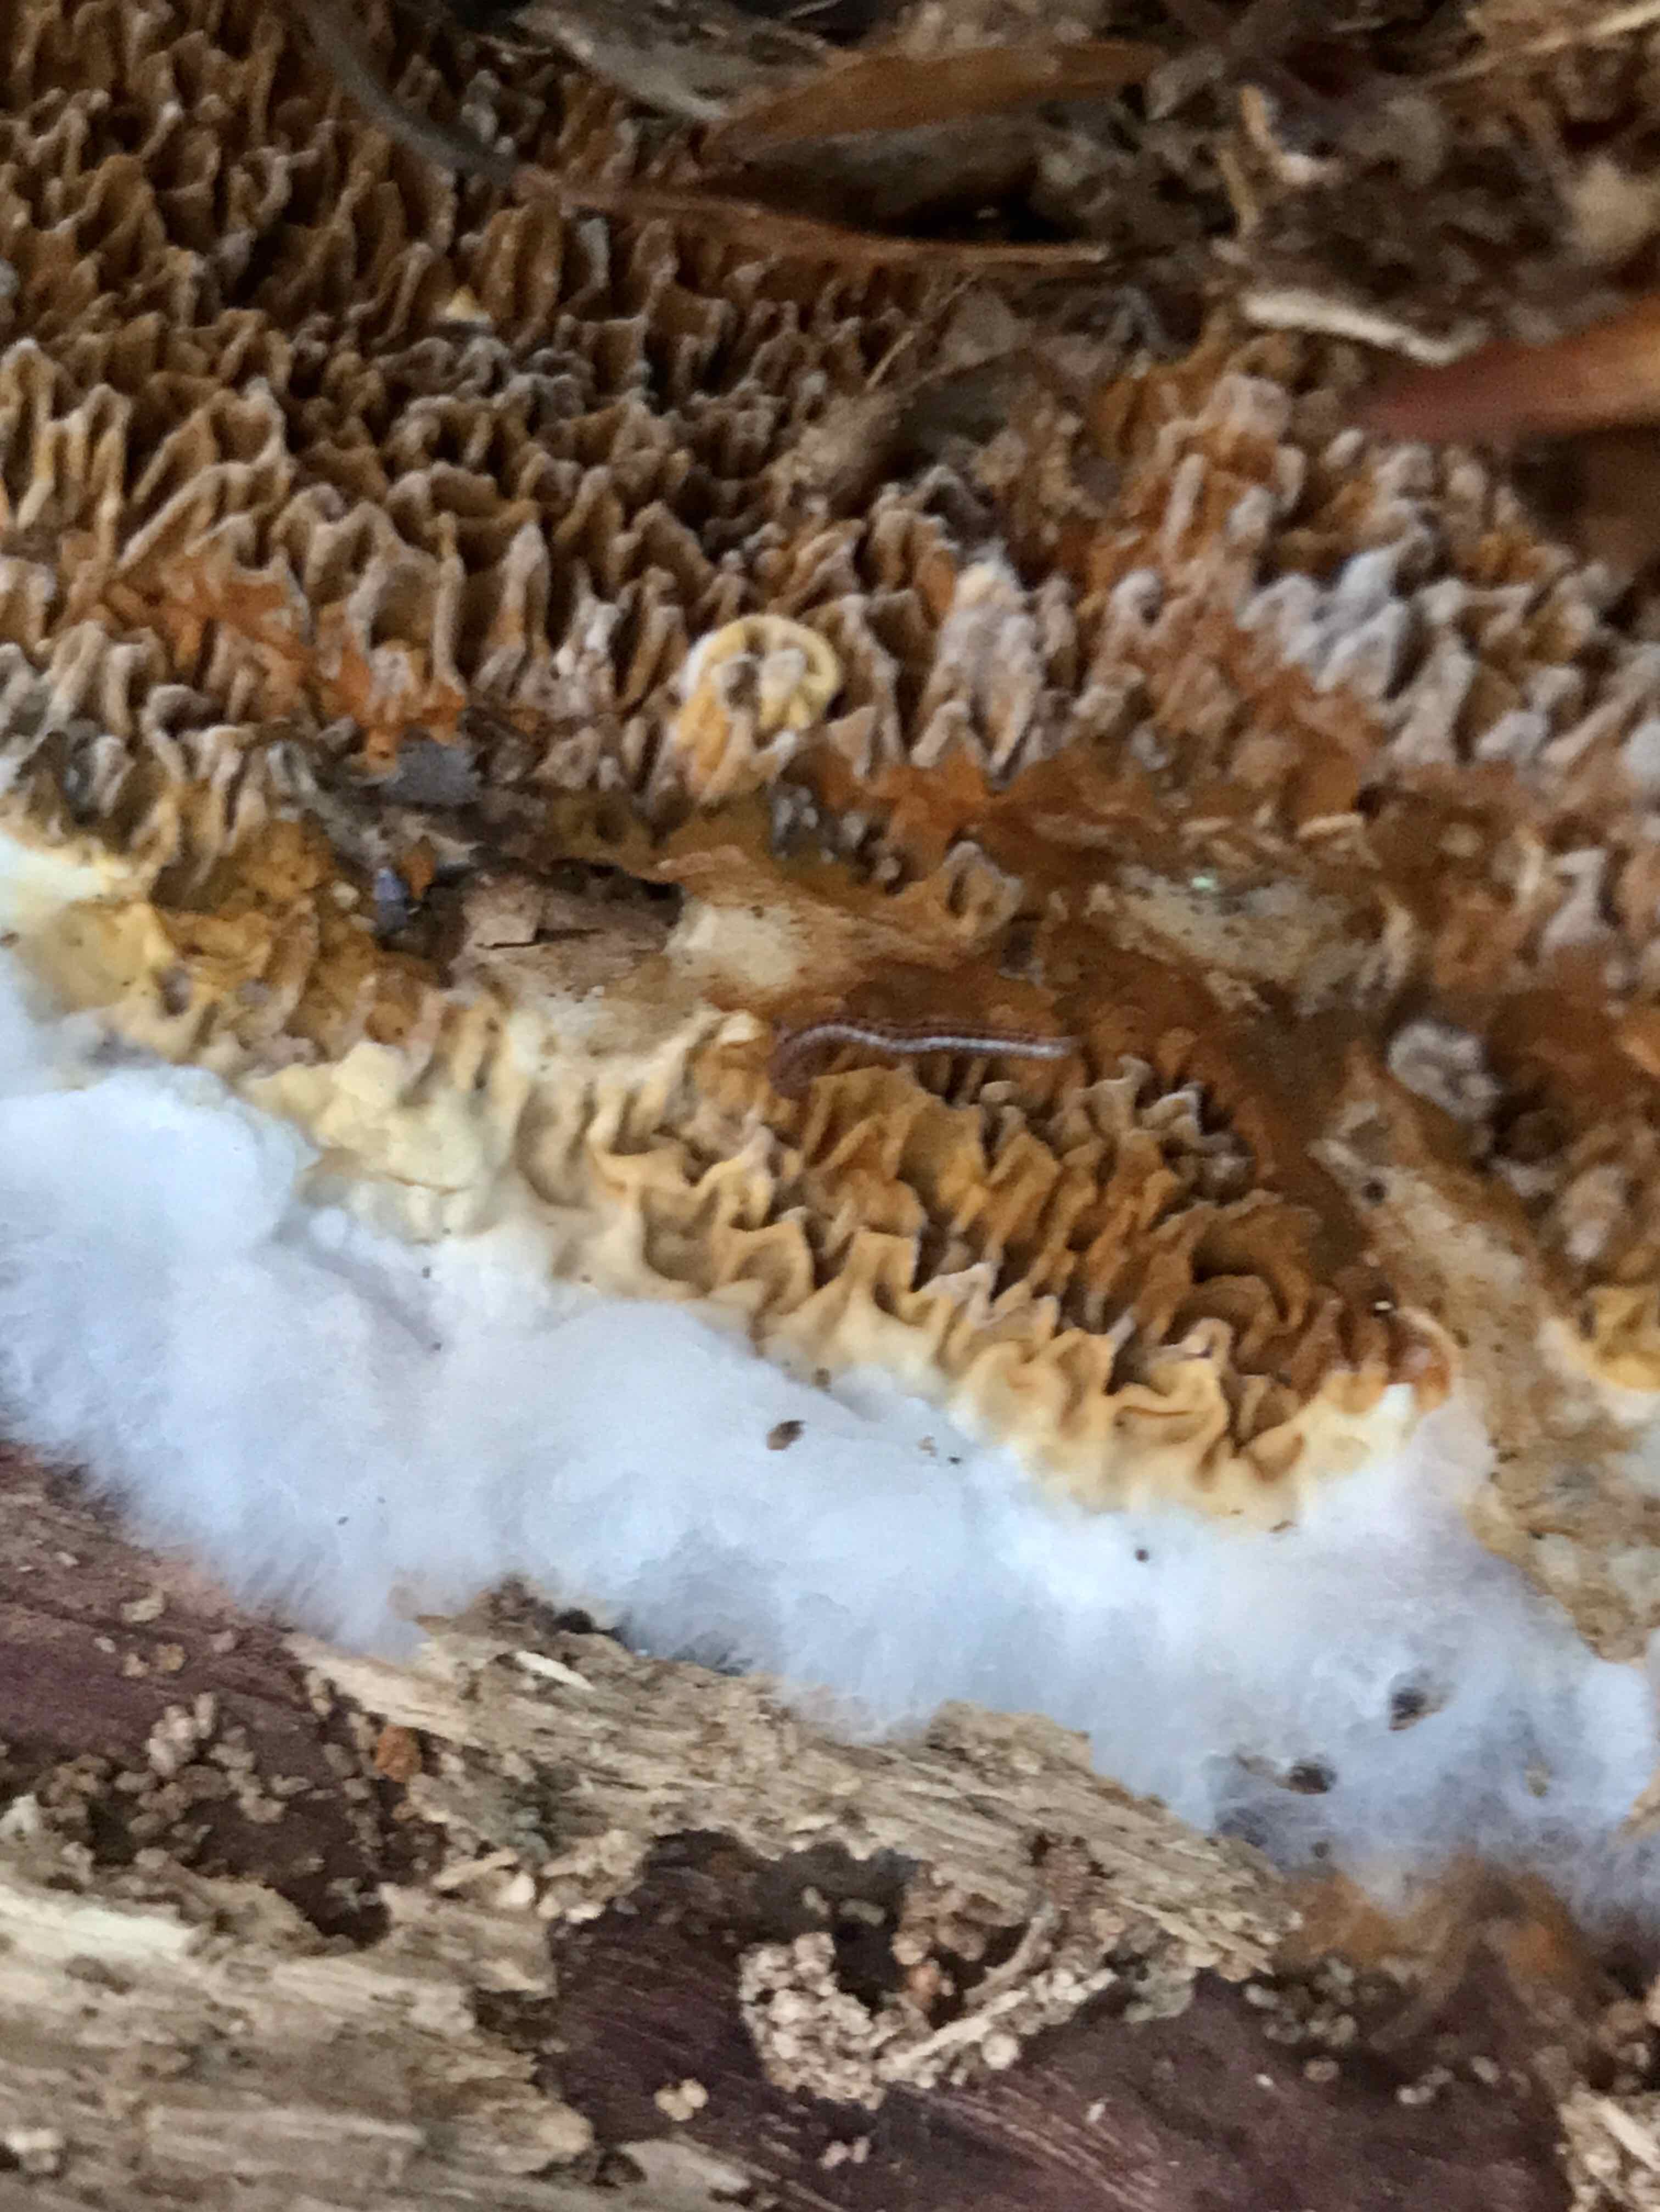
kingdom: Fungi
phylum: Basidiomycota
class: Agaricomycetes
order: Boletales
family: Serpulaceae
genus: Serpula
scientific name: Serpula himantioides
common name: tyndkødet hussvamp
